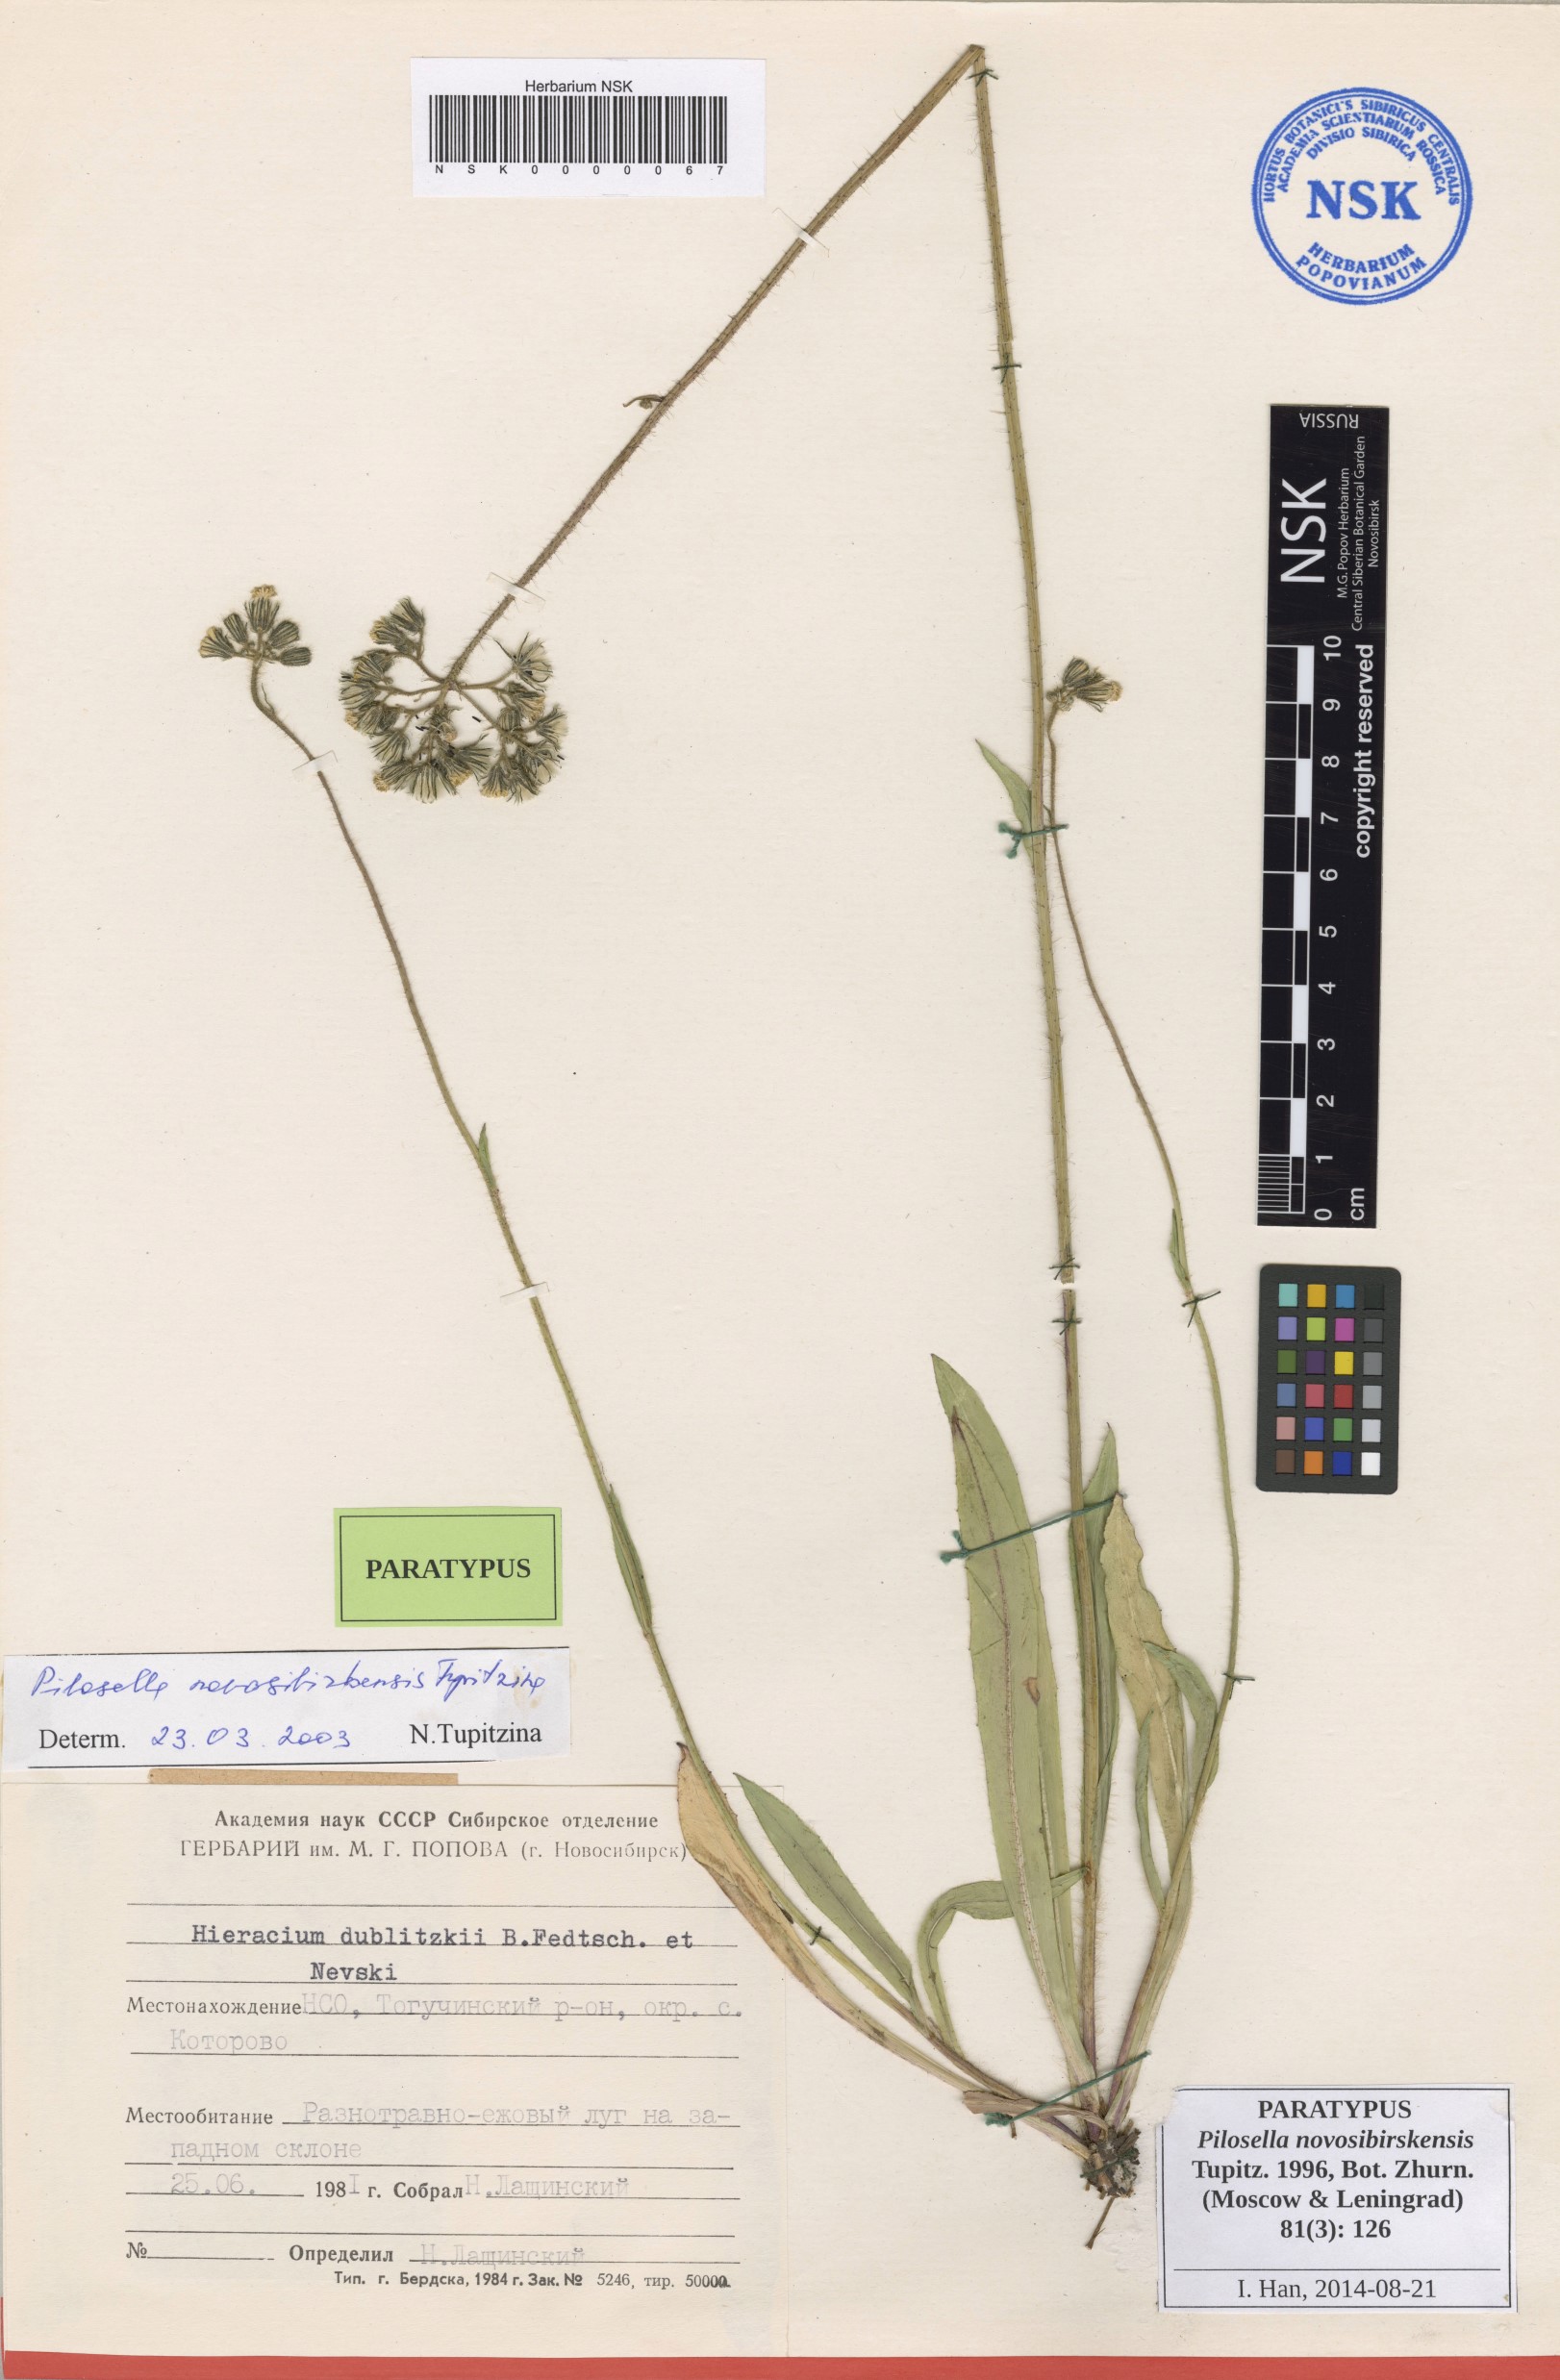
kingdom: Plantae
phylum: Tracheophyta
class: Magnoliopsida
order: Asterales
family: Asteraceae
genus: Pilosella
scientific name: Pilosella novosibirskensis
